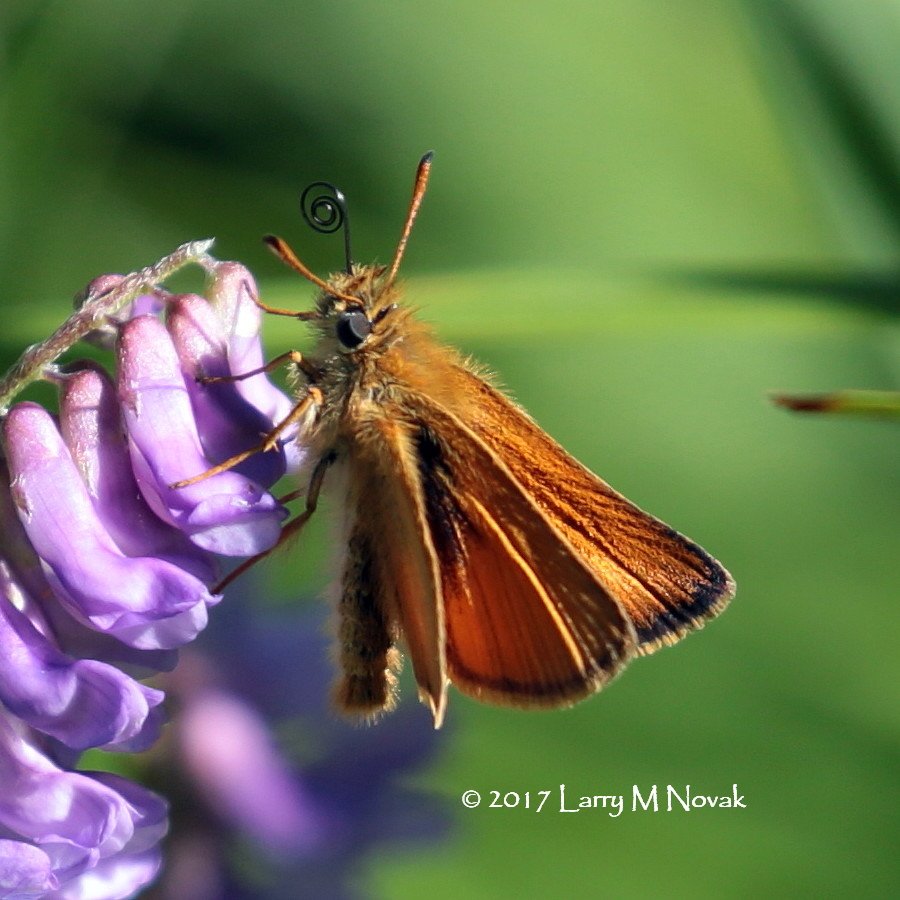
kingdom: Animalia
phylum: Arthropoda
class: Insecta
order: Lepidoptera
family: Hesperiidae
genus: Thymelicus
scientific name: Thymelicus lineola
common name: European Skipper
